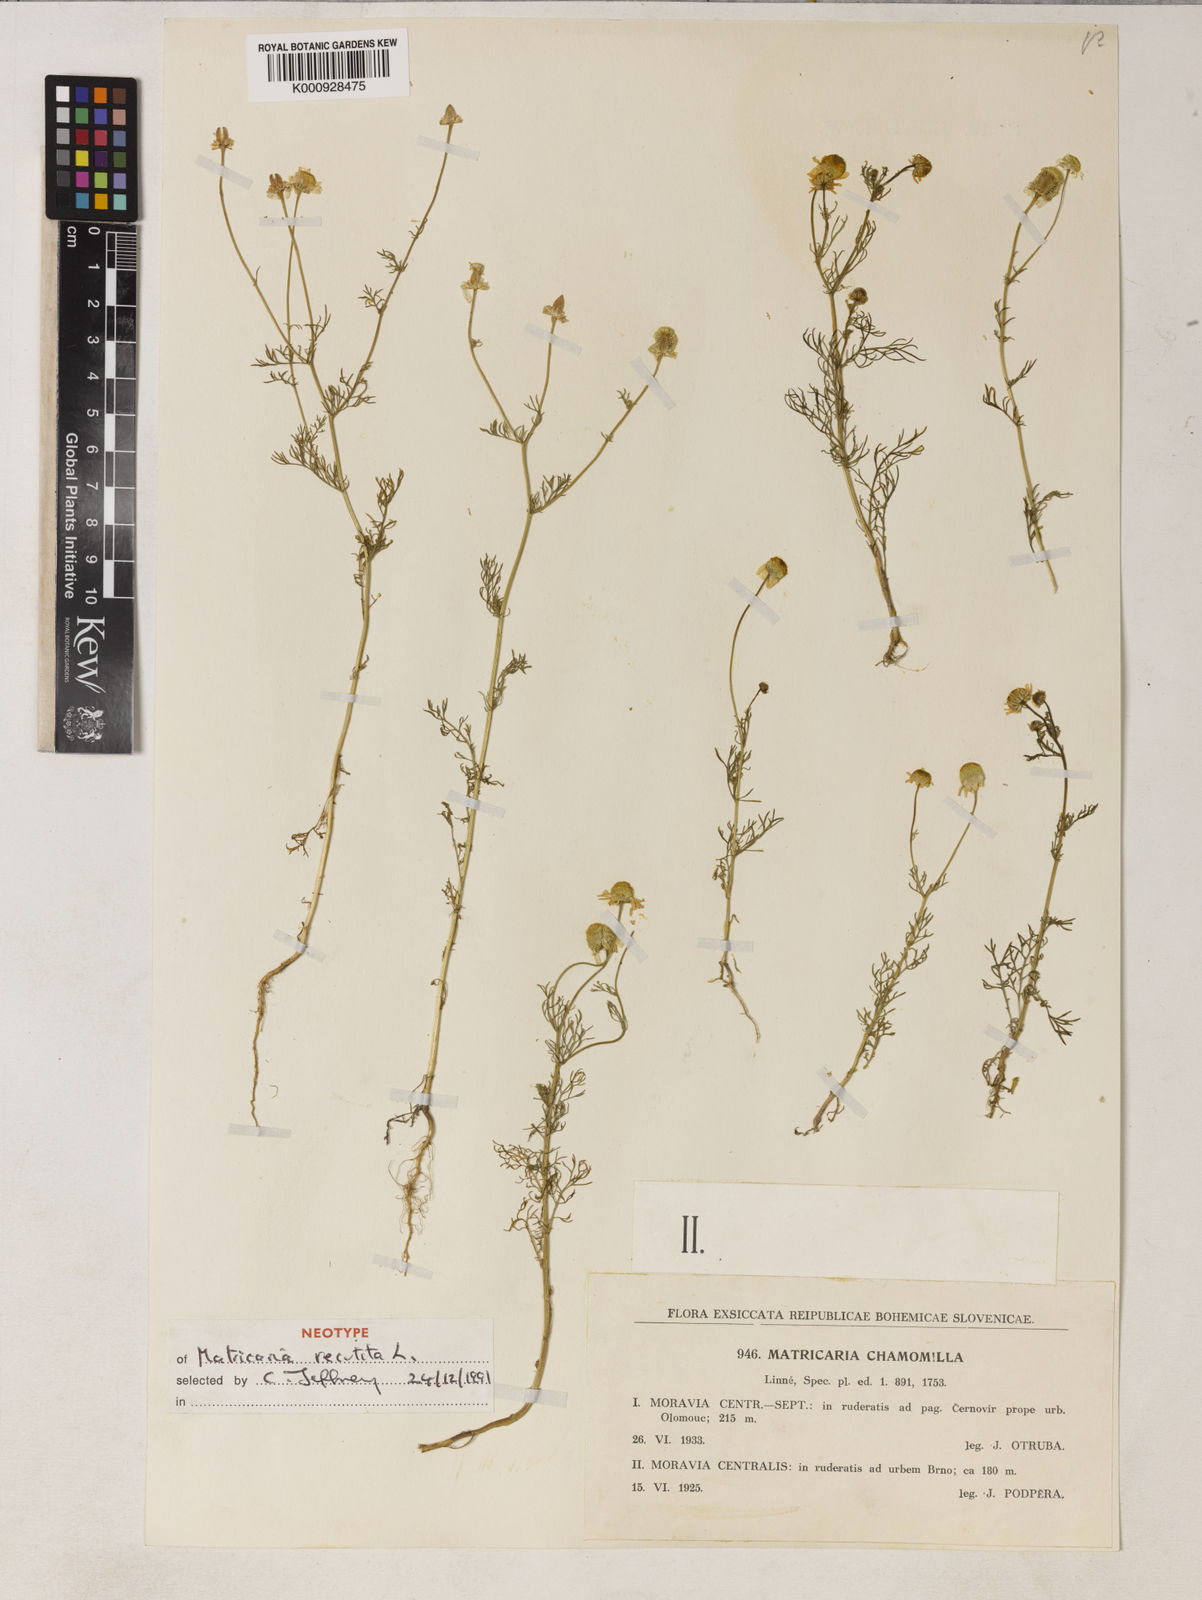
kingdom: Plantae
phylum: Tracheophyta
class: Magnoliopsida
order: Asterales
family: Asteraceae
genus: Matricaria
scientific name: Matricaria chamomilla
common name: Scented mayweed
